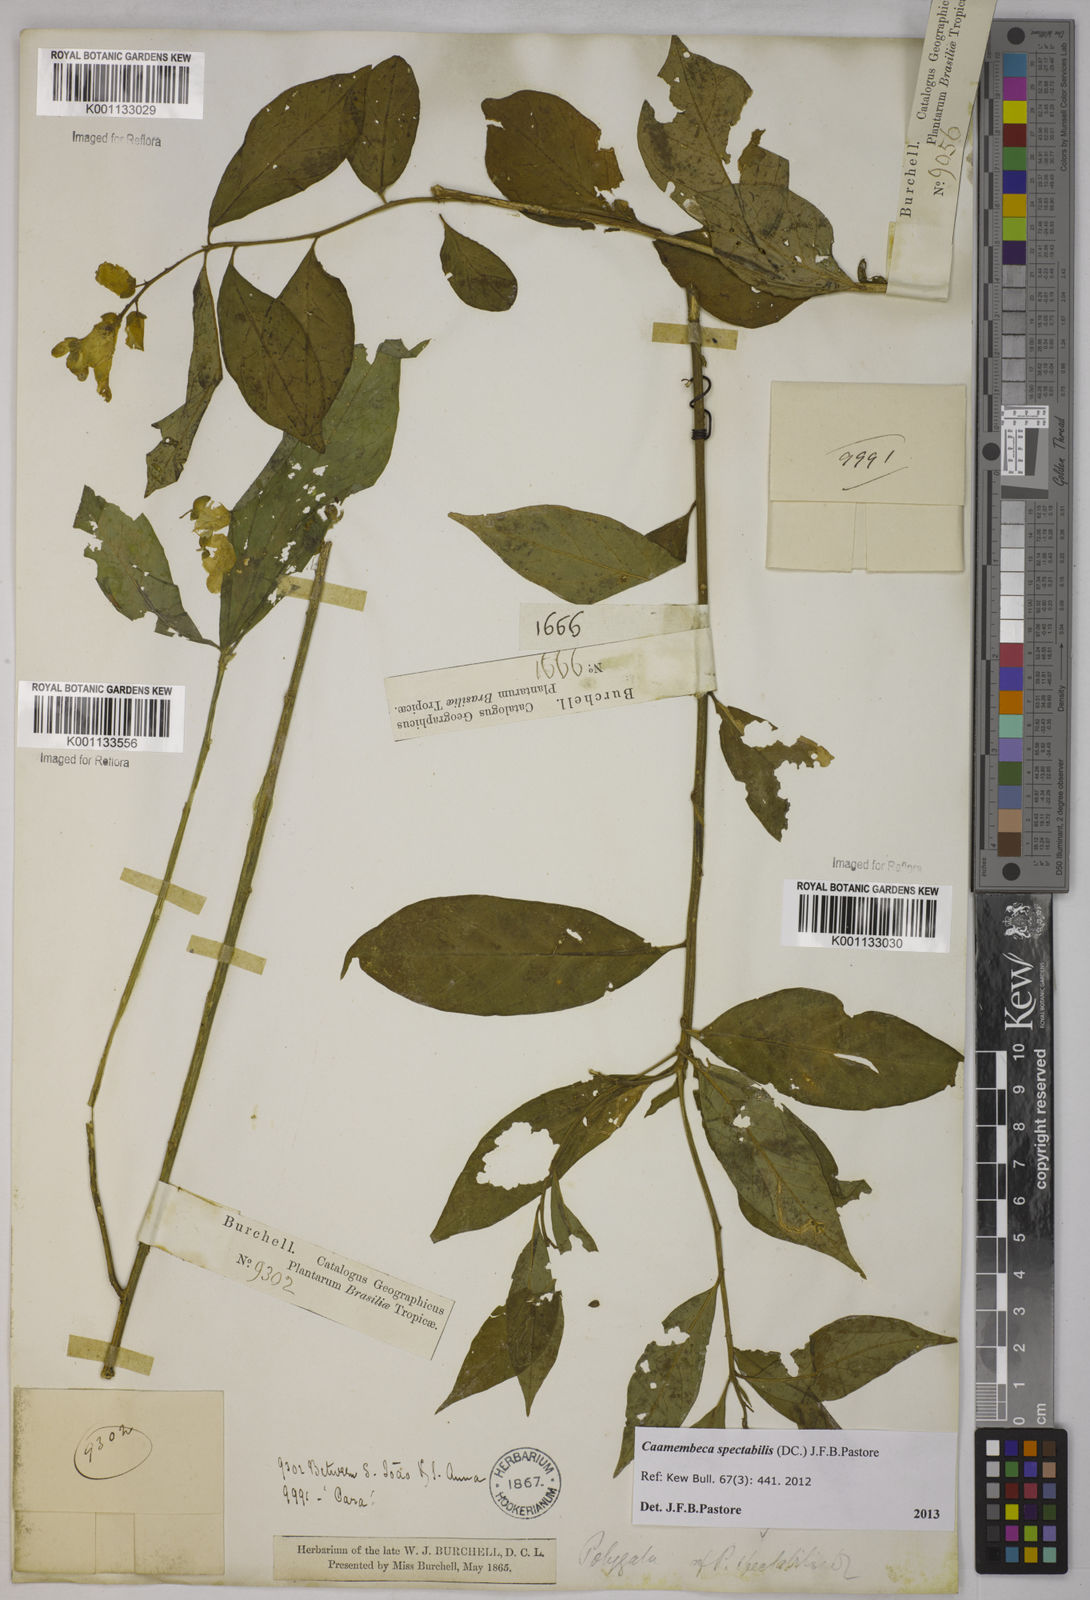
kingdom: Plantae
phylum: Tracheophyta
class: Magnoliopsida
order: Fabales
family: Polygalaceae
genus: Polygala
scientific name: Polygala
